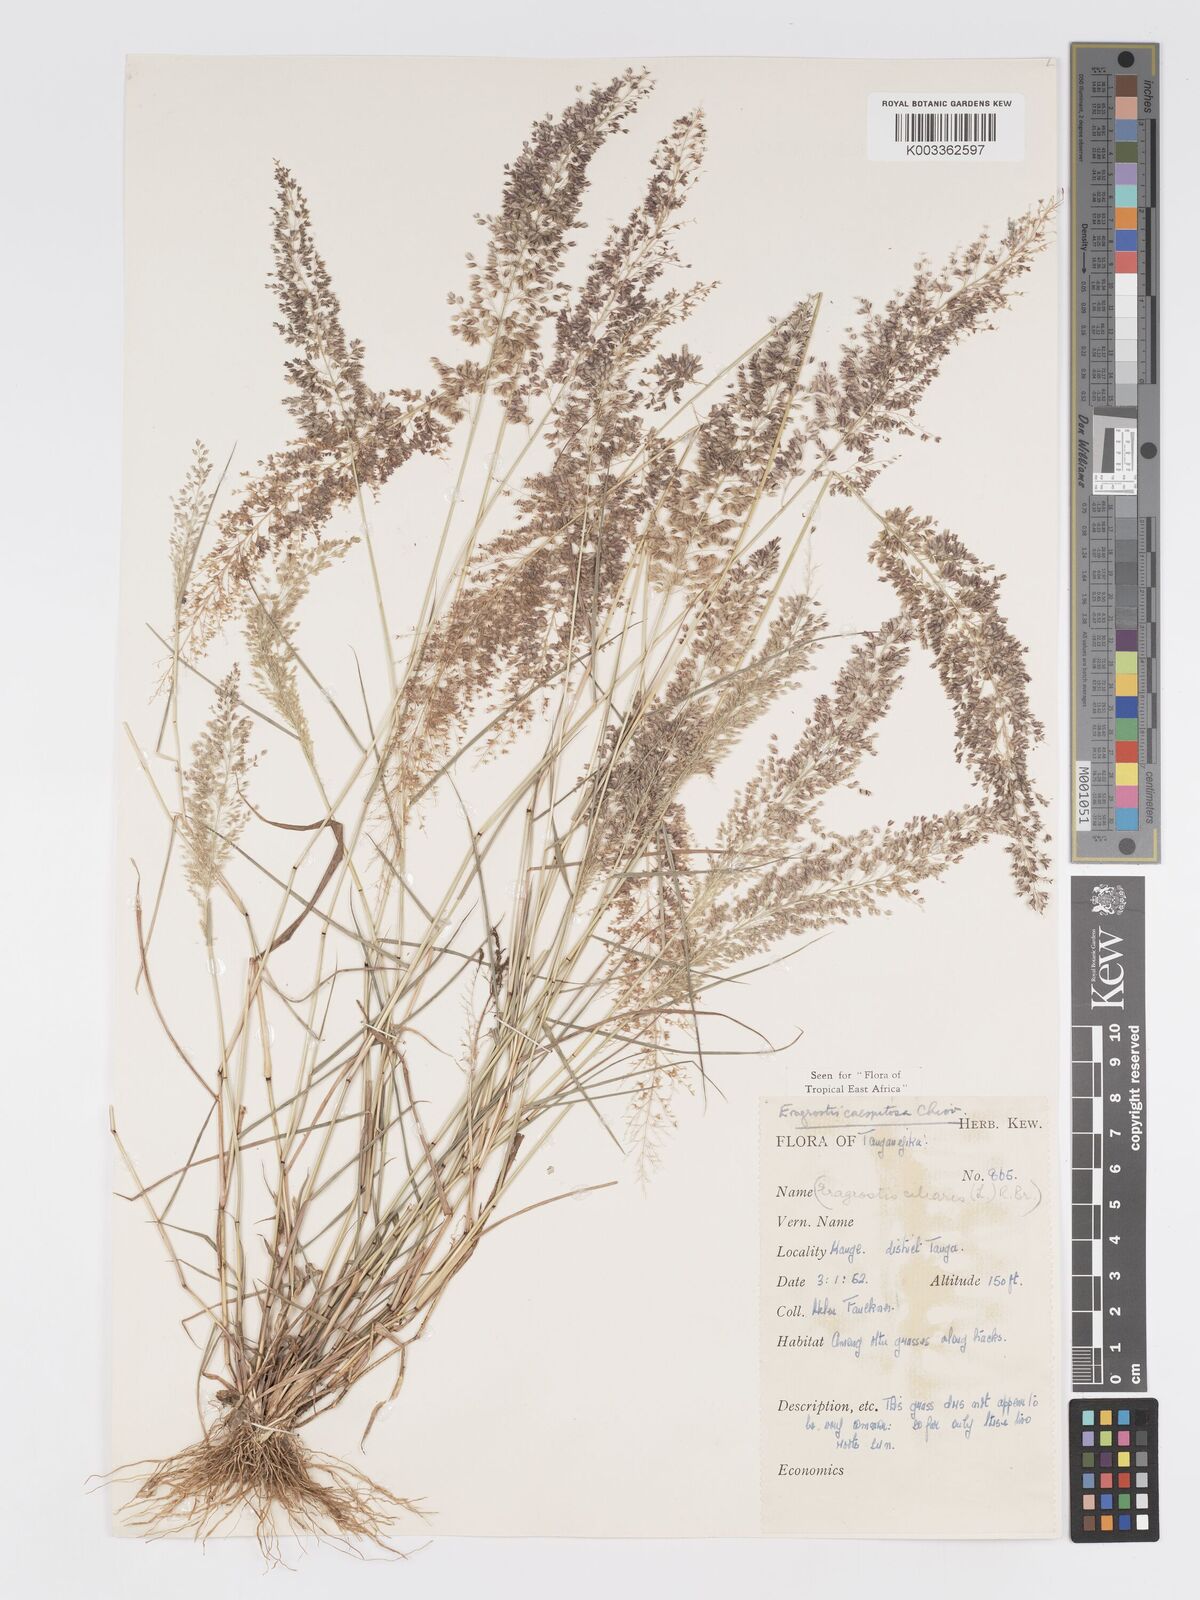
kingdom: Plantae
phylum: Tracheophyta
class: Liliopsida
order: Poales
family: Poaceae
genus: Eragrostis
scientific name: Eragrostis caespitosa
